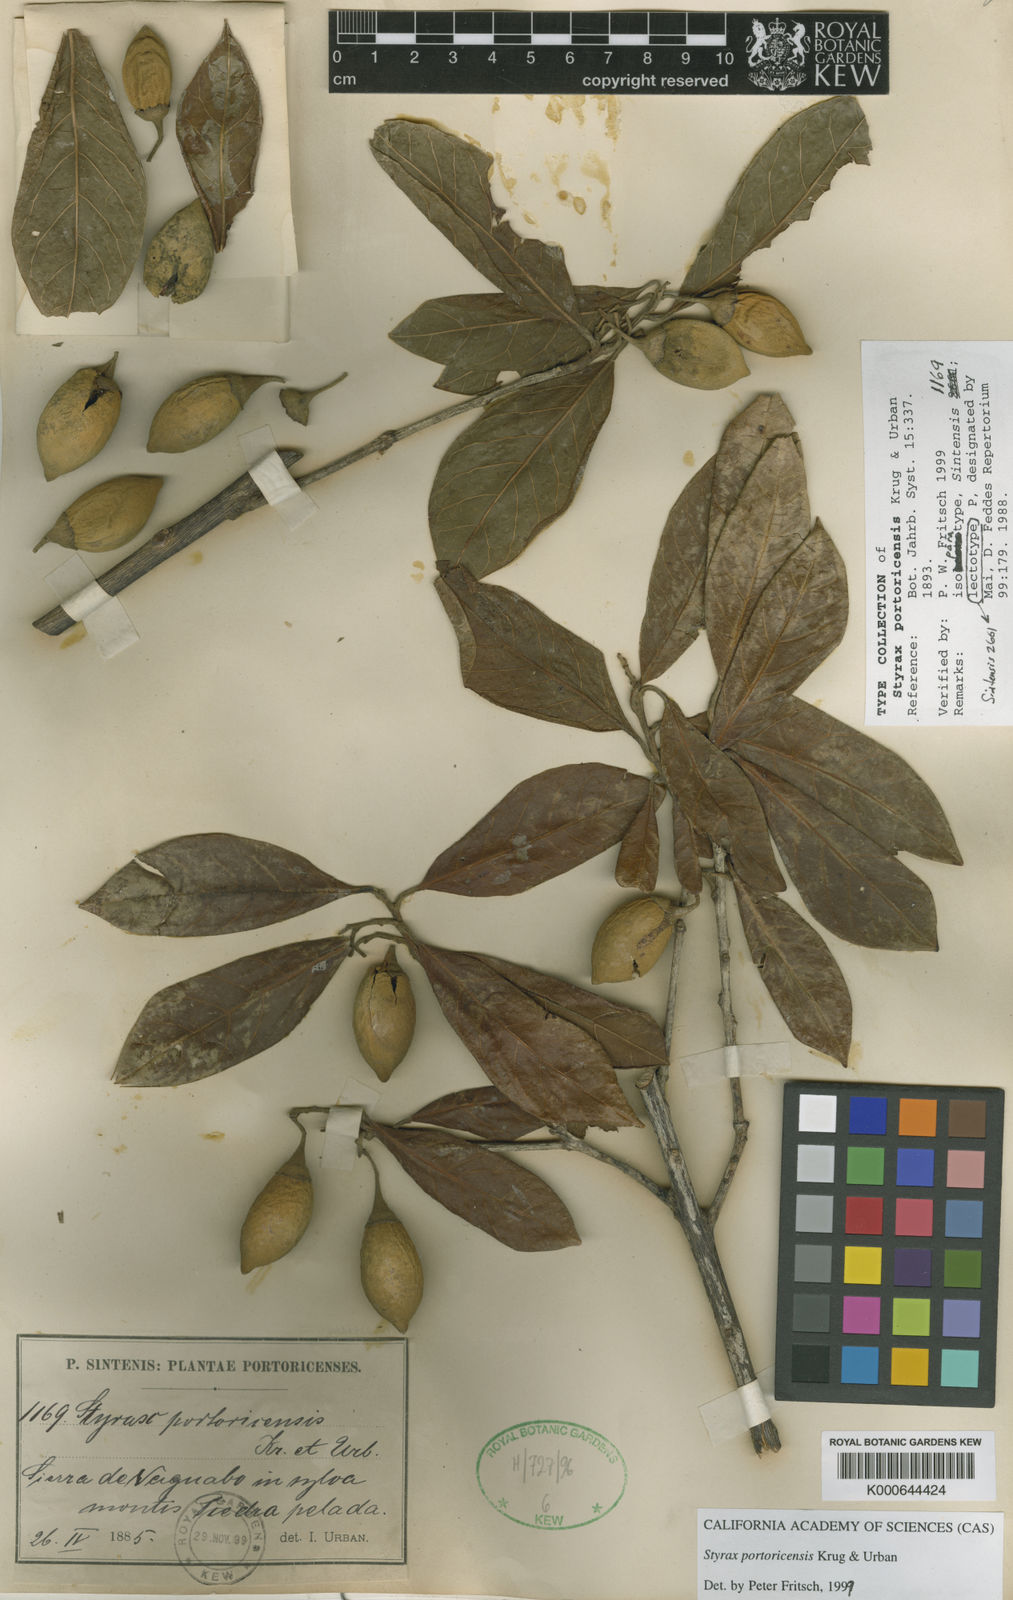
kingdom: Plantae
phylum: Tracheophyta
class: Magnoliopsida
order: Ericales
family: Styracaceae
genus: Styrax
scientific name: Styrax portoricensis
